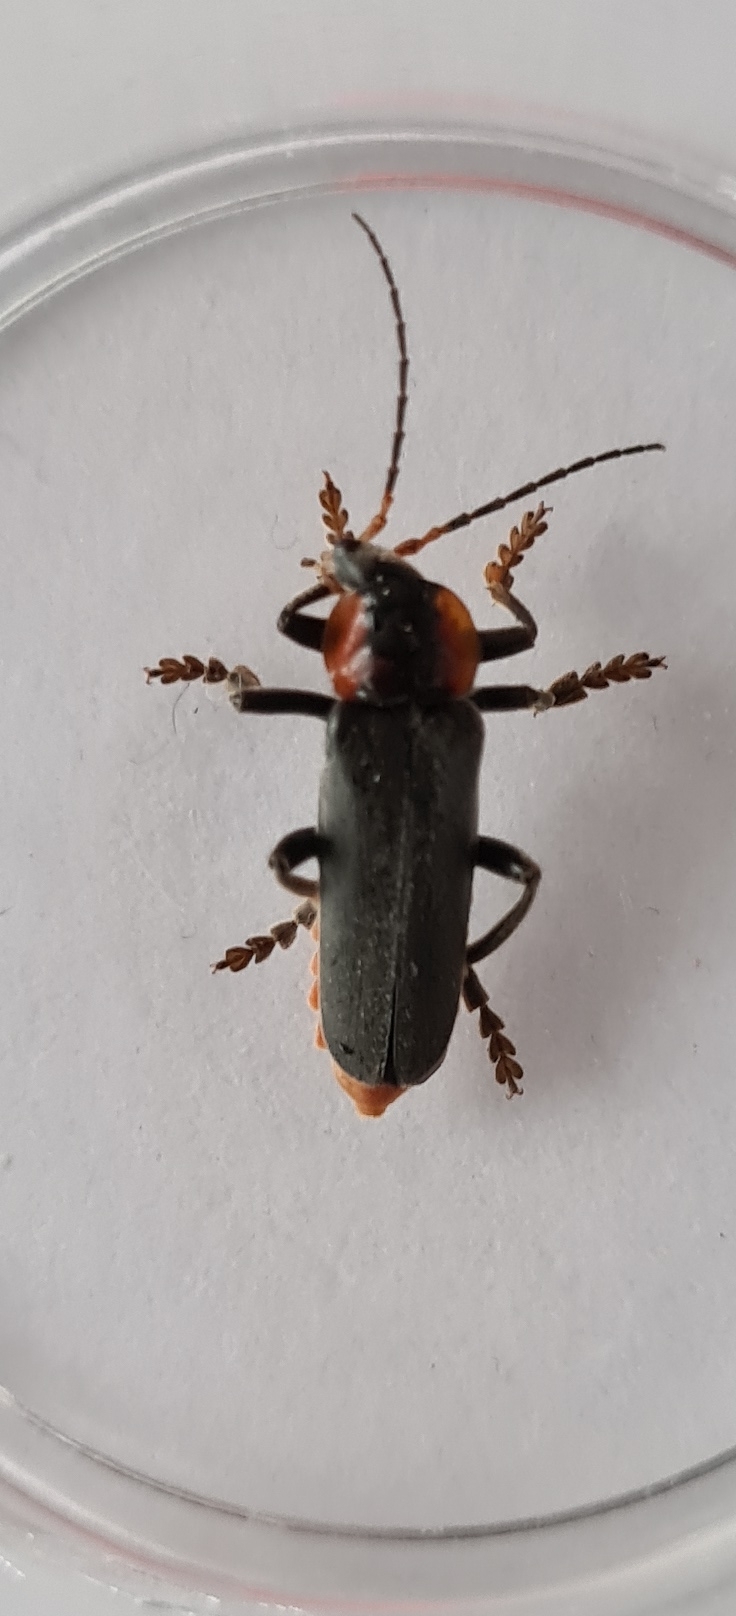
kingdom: Animalia
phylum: Arthropoda
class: Insecta
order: Coleoptera
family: Cantharidae
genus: Cantharis
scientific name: Cantharis fusca
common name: Stor blødvinge
